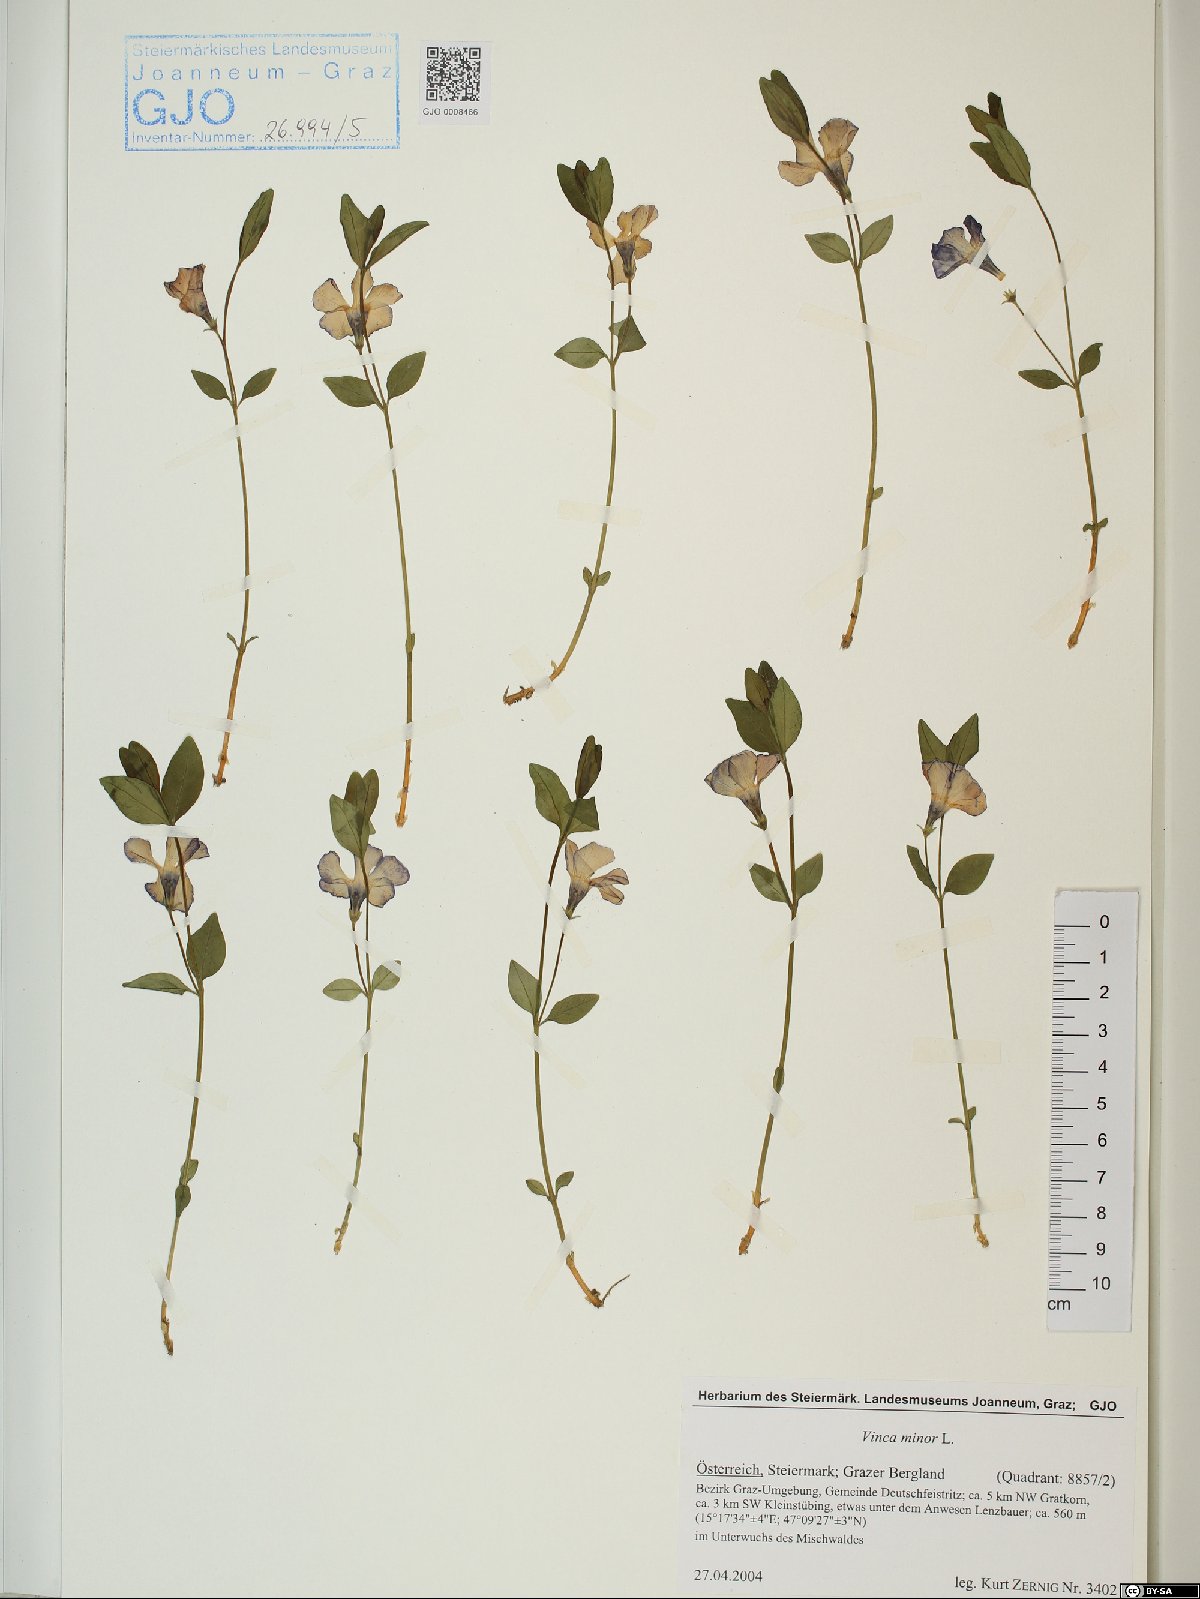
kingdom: Plantae
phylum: Tracheophyta
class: Magnoliopsida
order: Gentianales
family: Apocynaceae
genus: Vinca
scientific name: Vinca minor
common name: Lesser periwinkle
